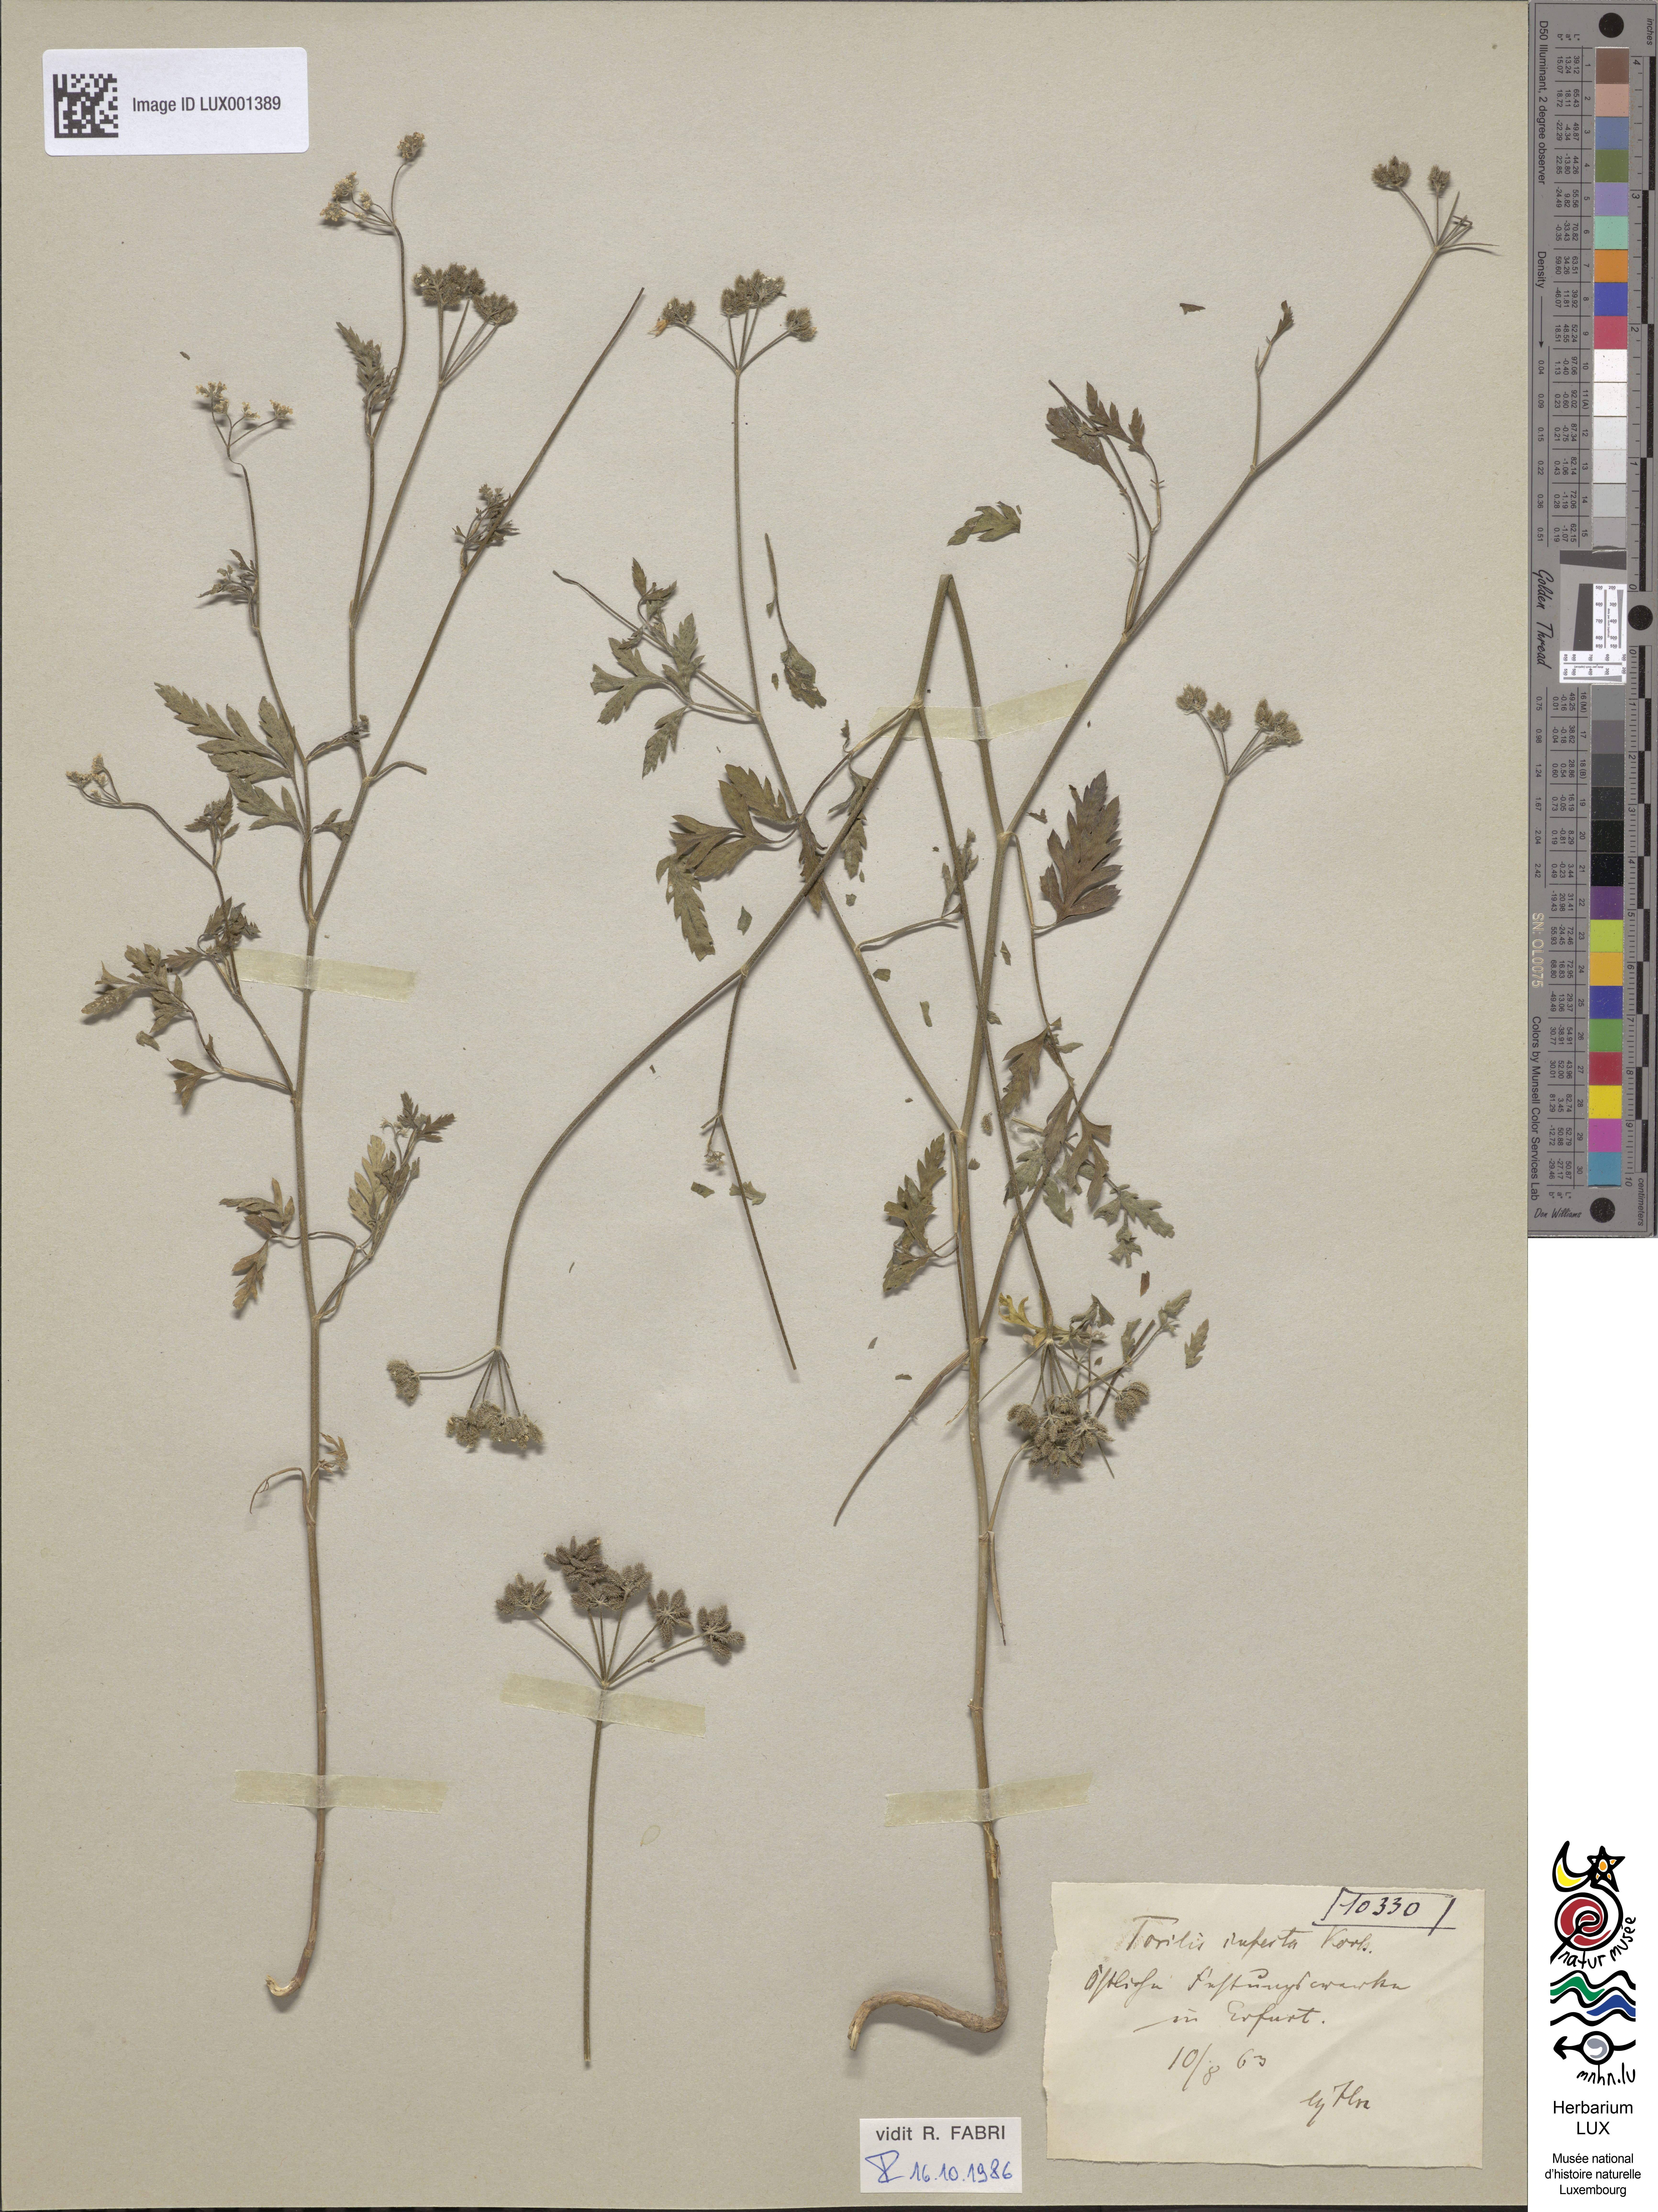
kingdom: Plantae
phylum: Tracheophyta
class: Magnoliopsida
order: Apiales
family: Apiaceae
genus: Torilis
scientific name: Torilis arvensis
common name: Spreading hedge-parsley
